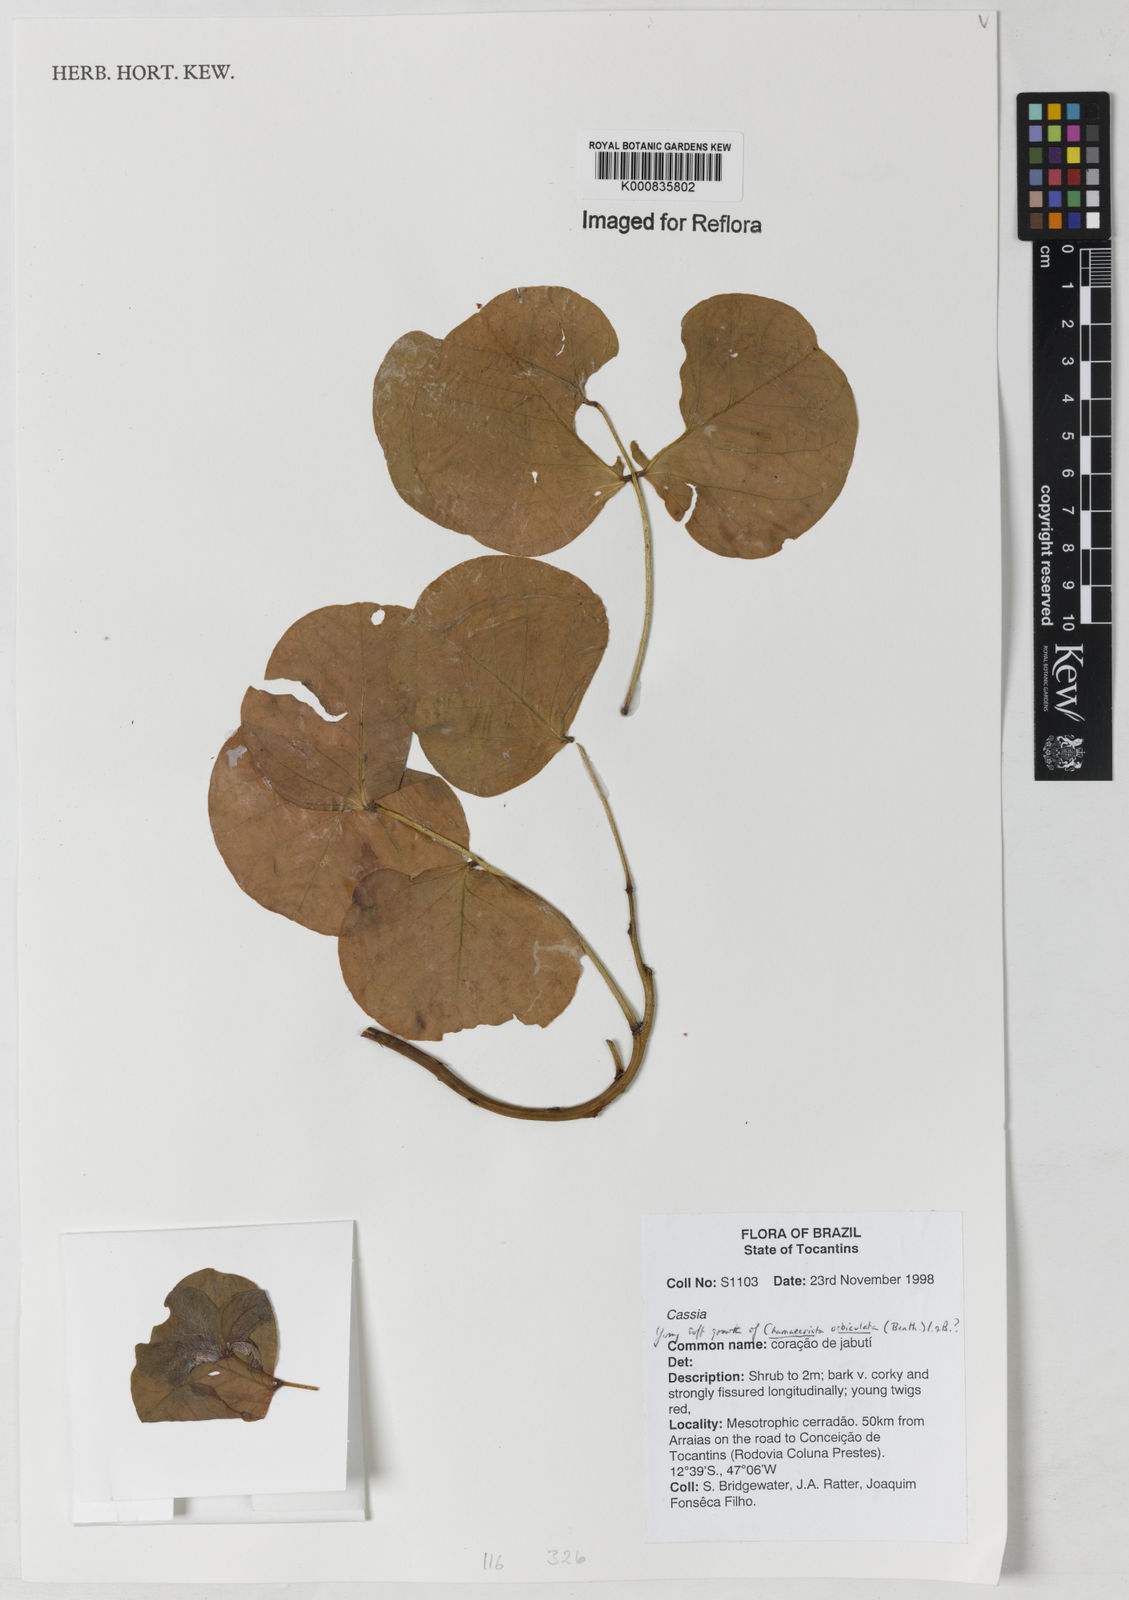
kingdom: Plantae
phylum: Tracheophyta
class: Magnoliopsida
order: Fabales
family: Fabaceae
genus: Chamaecrista
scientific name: Chamaecrista orbiculata
